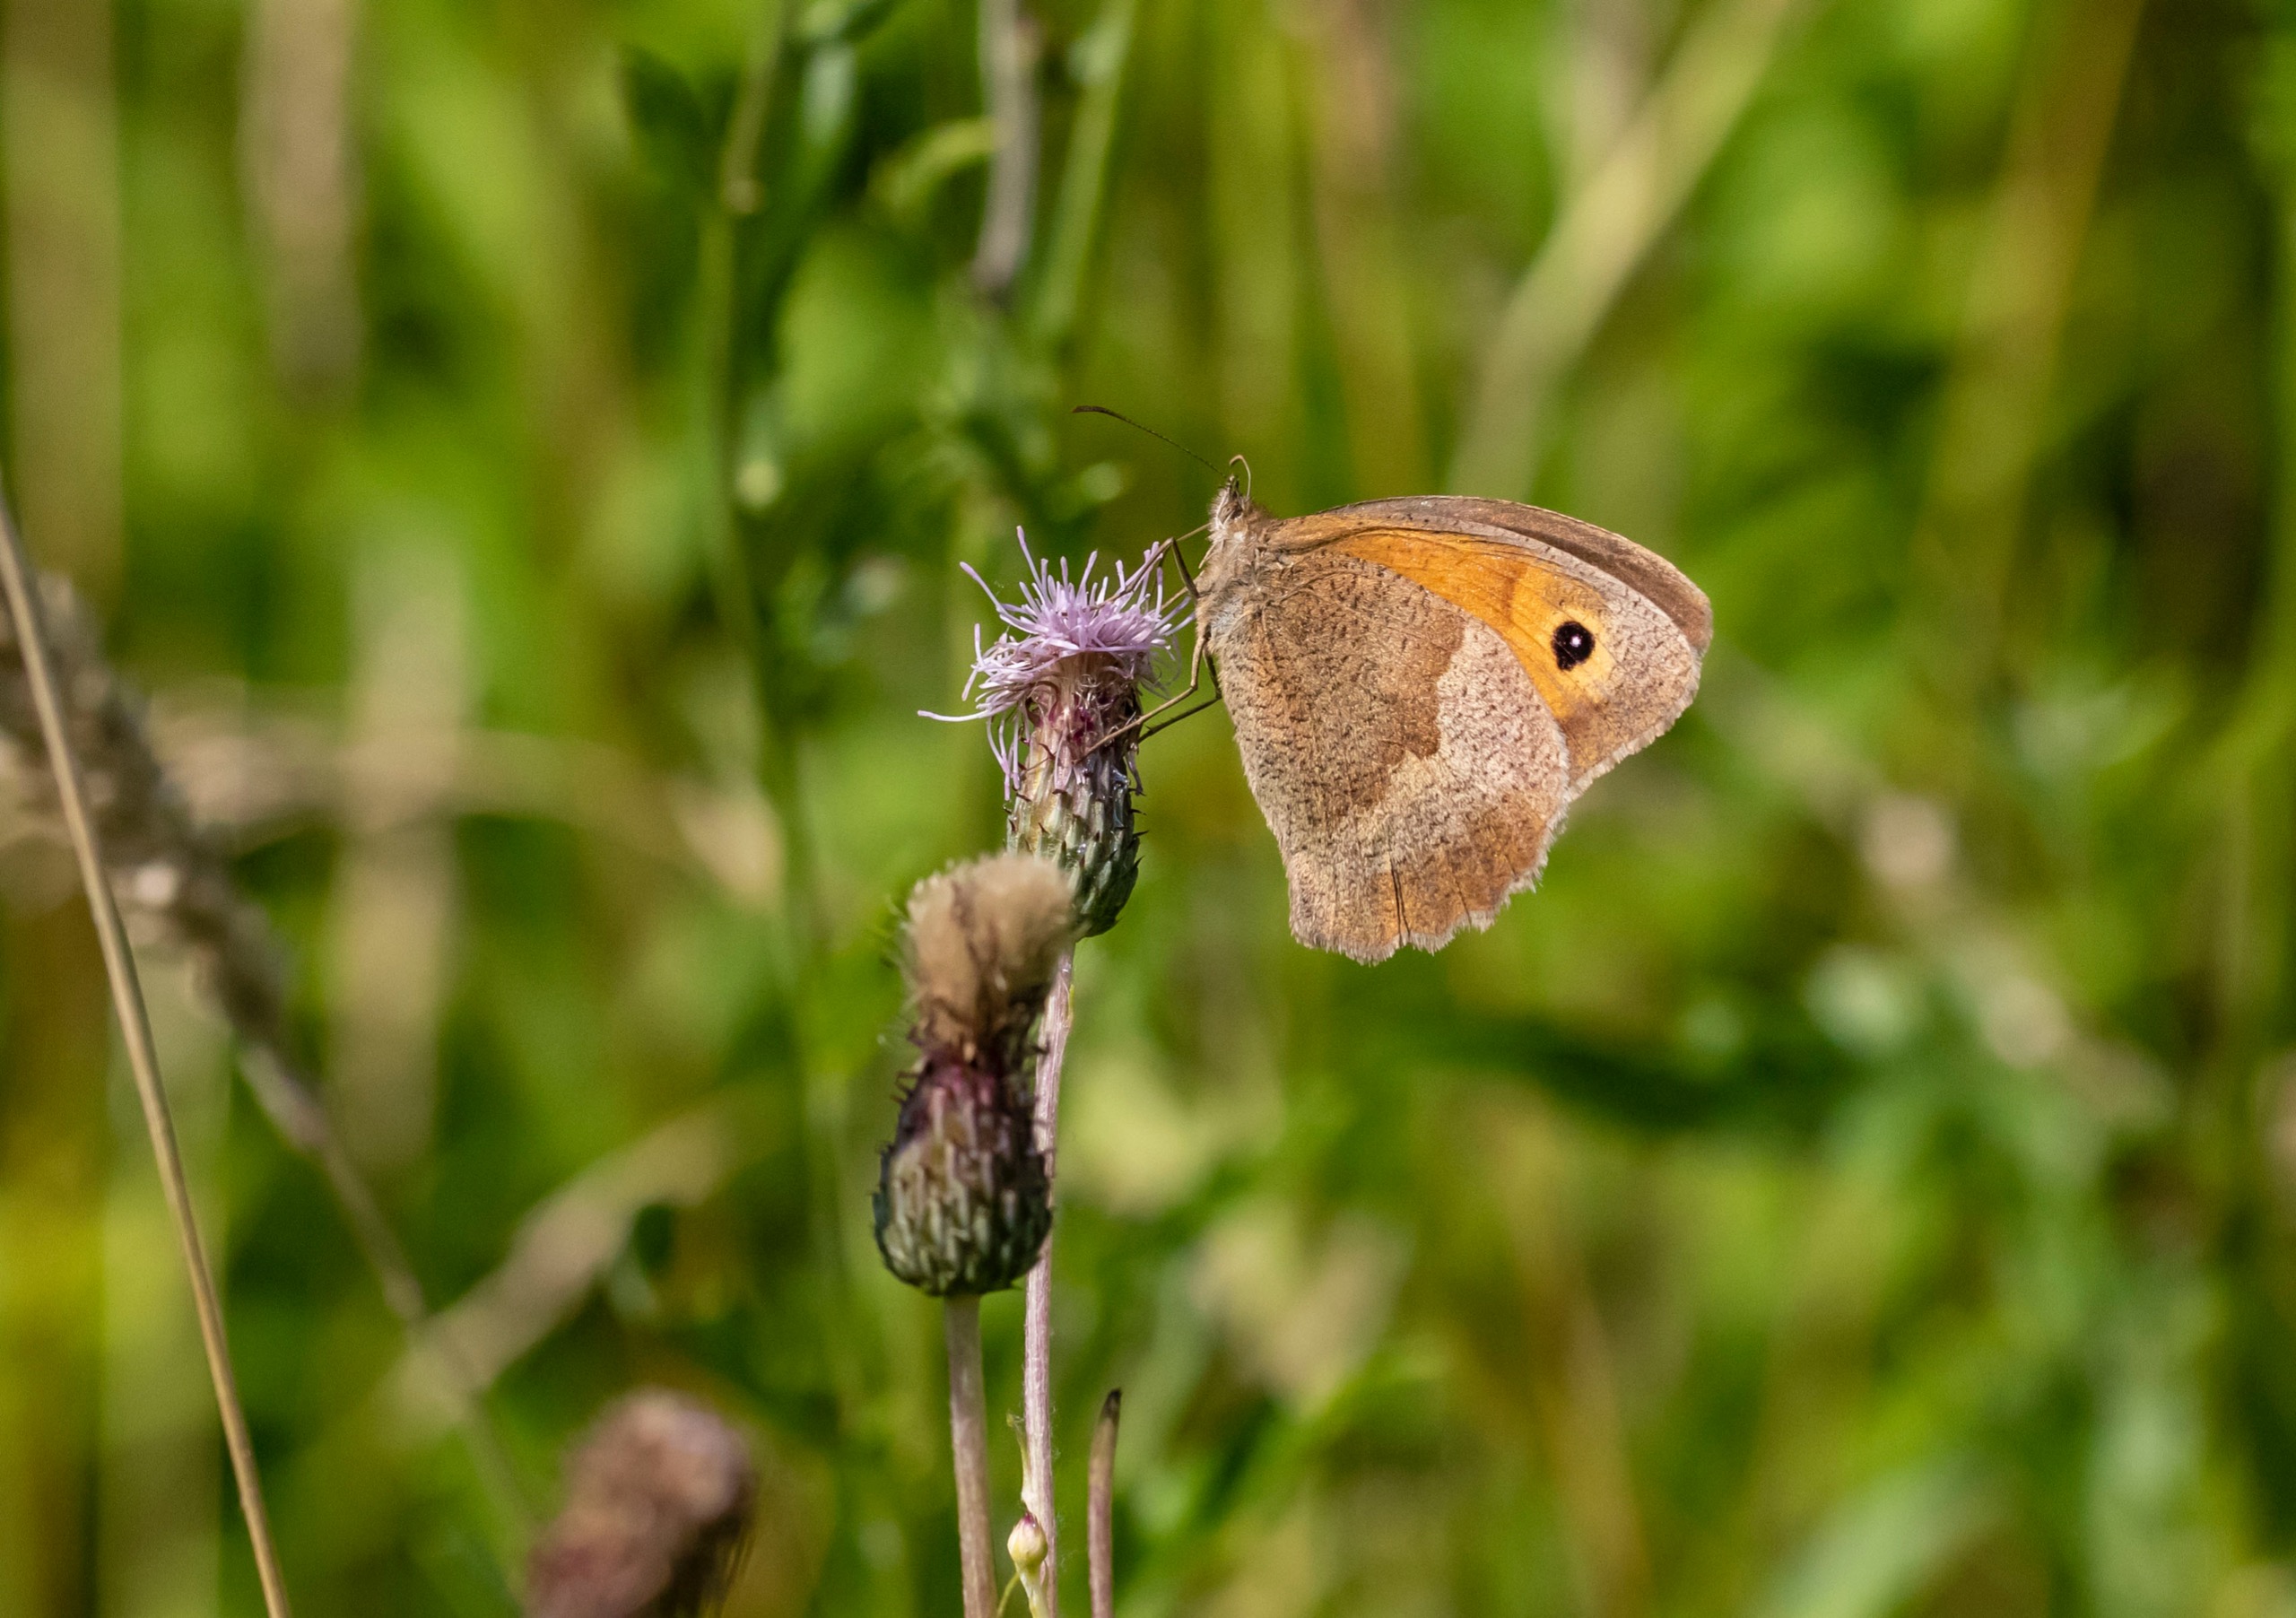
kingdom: Animalia
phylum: Arthropoda
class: Insecta
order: Lepidoptera
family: Nymphalidae
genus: Maniola
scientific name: Maniola jurtina
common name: Græsrandøje
